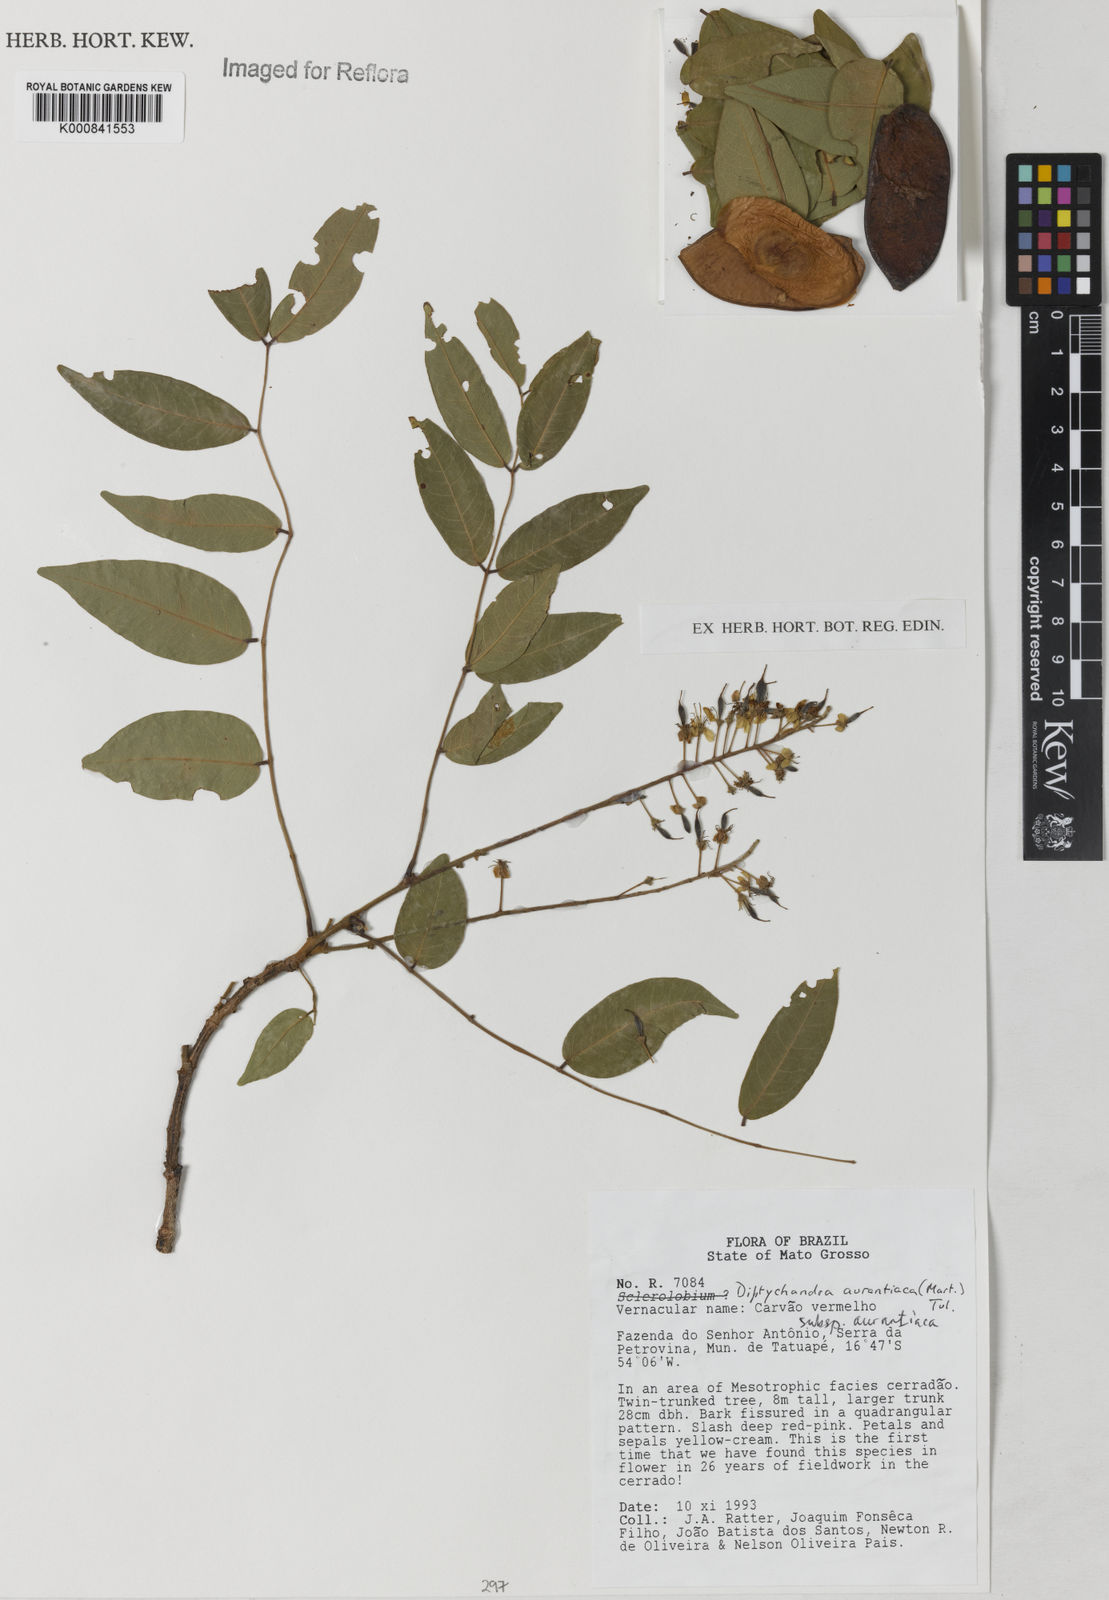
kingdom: Plantae
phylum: Tracheophyta
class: Magnoliopsida
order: Fabales
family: Fabaceae
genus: Diptychandra
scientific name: Diptychandra aurantiaca
